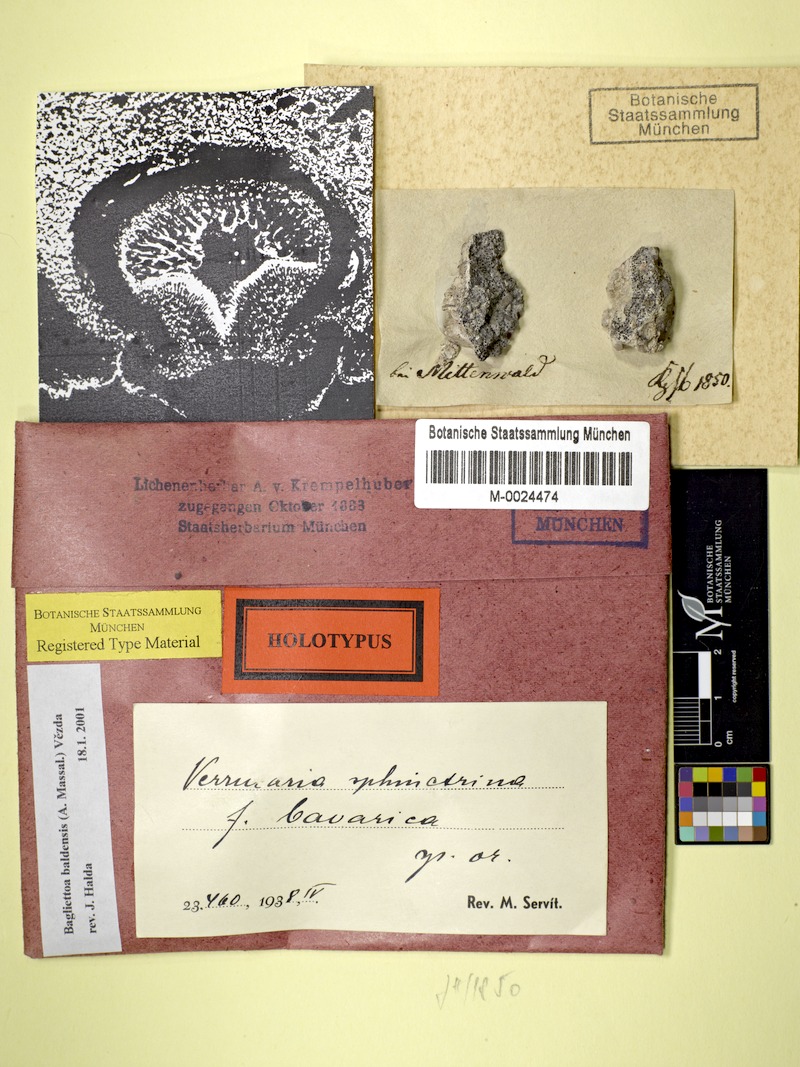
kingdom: Fungi
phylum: Ascomycota
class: Eurotiomycetes
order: Verrucariales
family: Verrucariaceae
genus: Bagliettoa
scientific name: Bagliettoa baldensis
